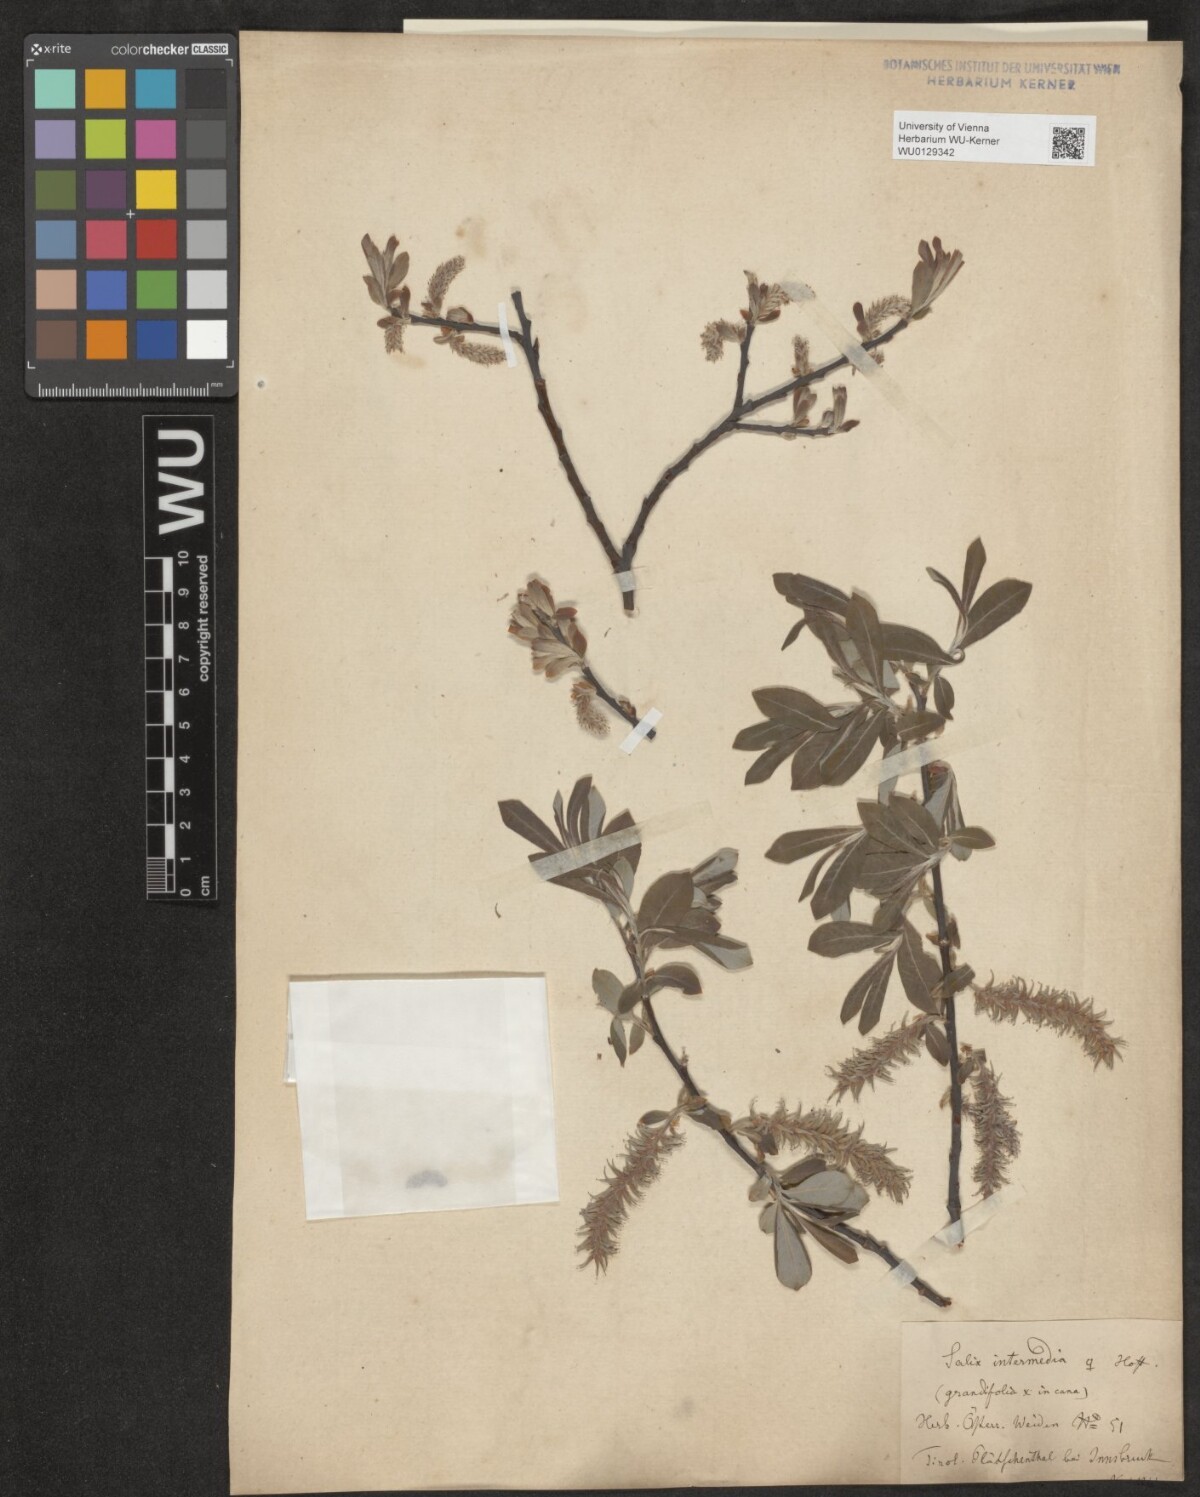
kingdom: Plantae
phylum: Tracheophyta
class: Magnoliopsida
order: Malpighiales
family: Salicaceae
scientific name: Salicaceae
